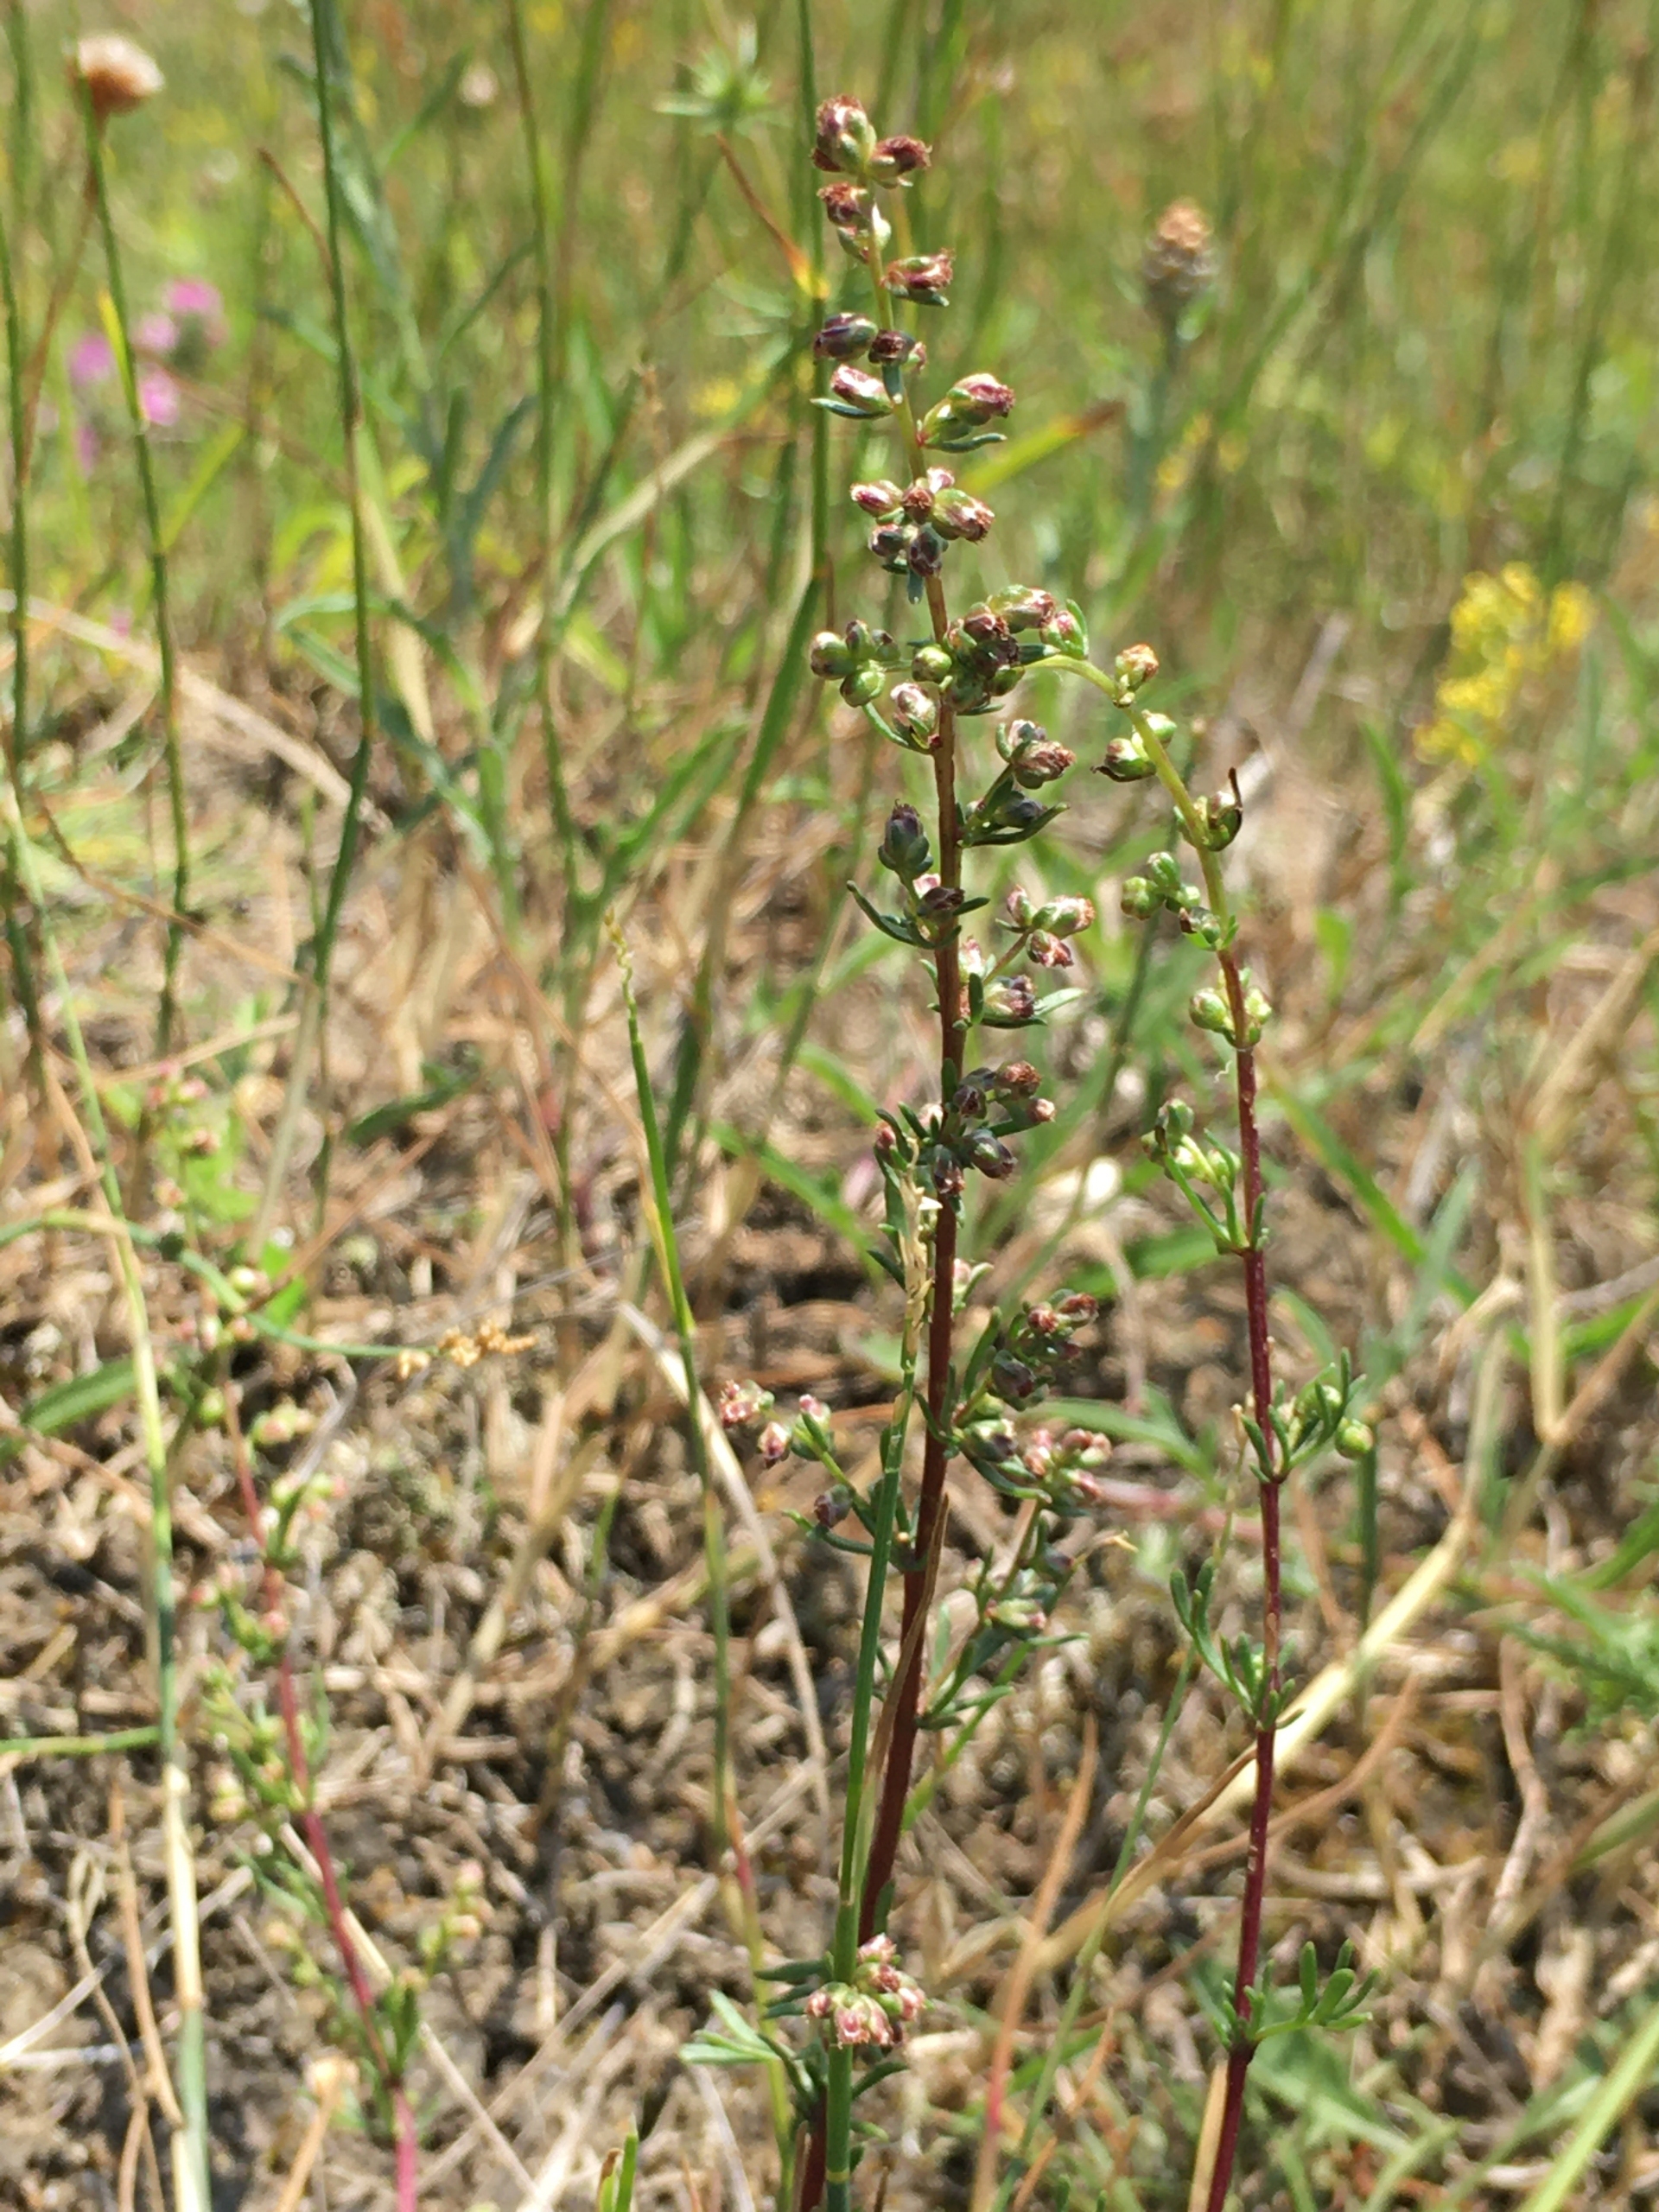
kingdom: Plantae
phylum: Tracheophyta
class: Magnoliopsida
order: Asterales
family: Asteraceae
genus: Artemisia
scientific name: Artemisia campestris
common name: Mark-bynke
